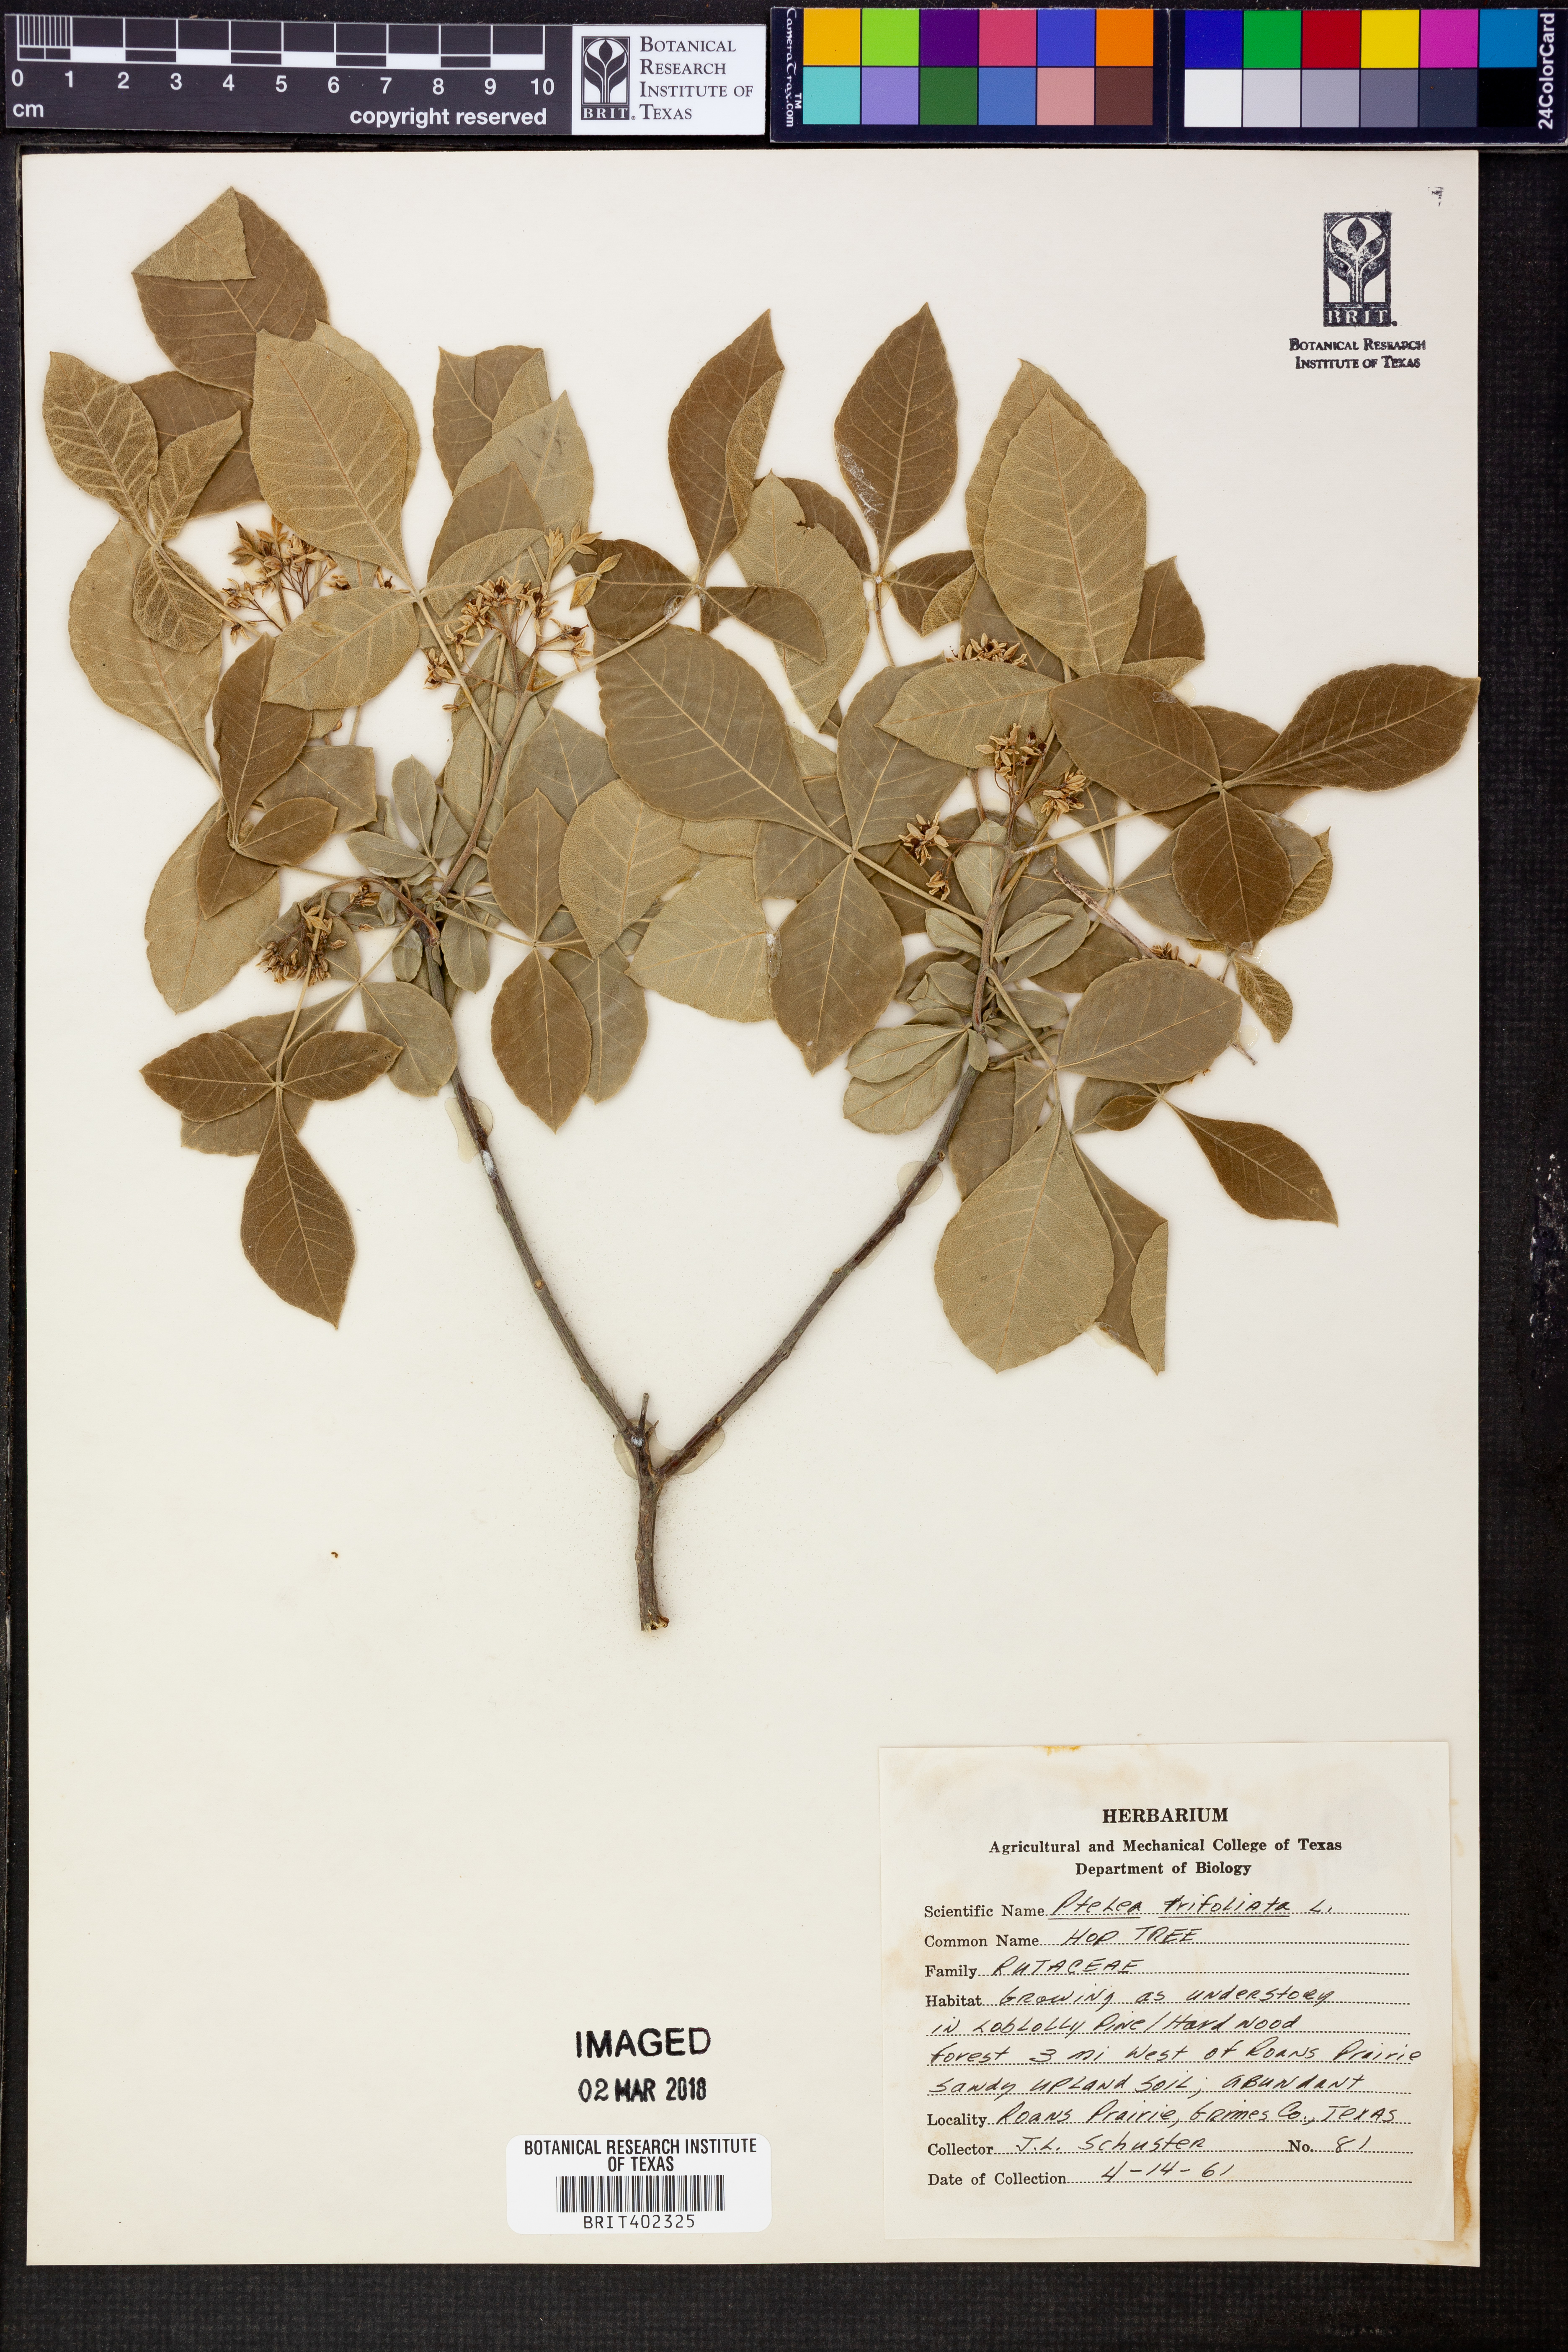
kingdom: Plantae
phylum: Tracheophyta
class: Magnoliopsida
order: Sapindales
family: Rutaceae
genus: Ptelea
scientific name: Ptelea trifoliata
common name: Common hop-tree
